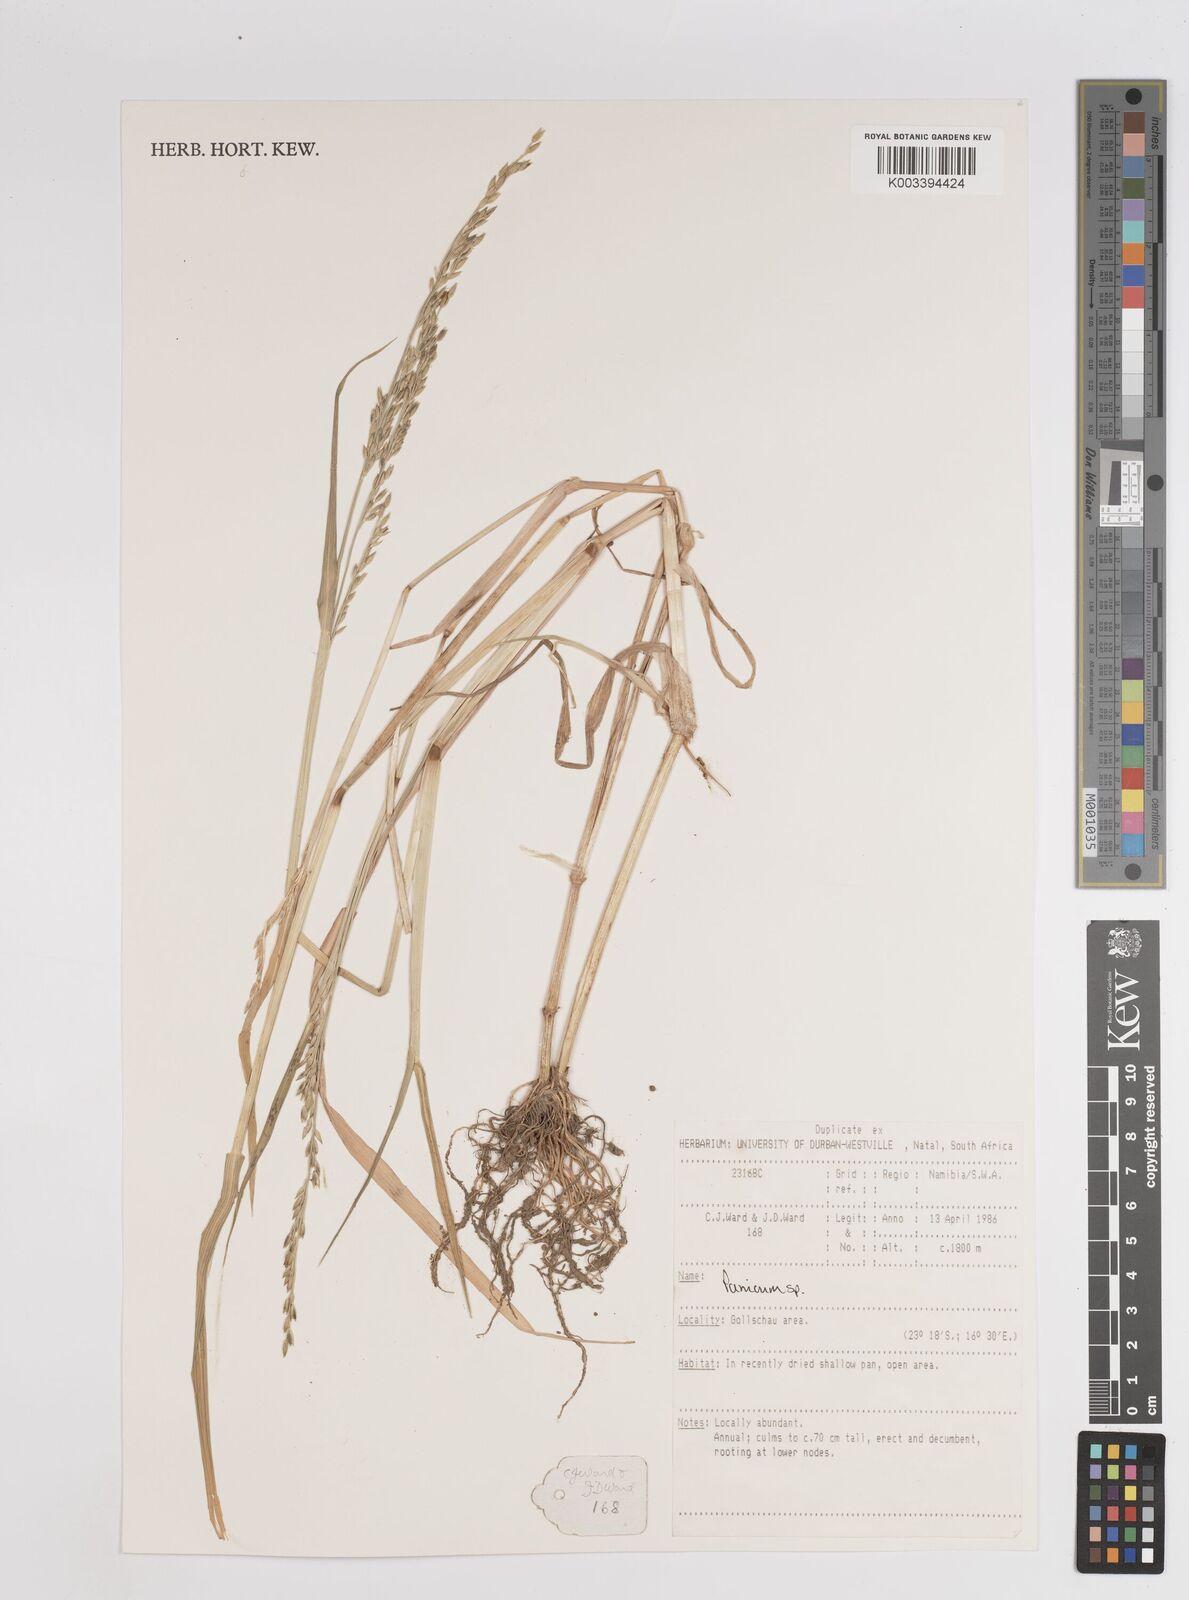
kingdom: Plantae
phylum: Tracheophyta
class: Liliopsida
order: Poales
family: Poaceae
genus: Panicum
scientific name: Panicum
